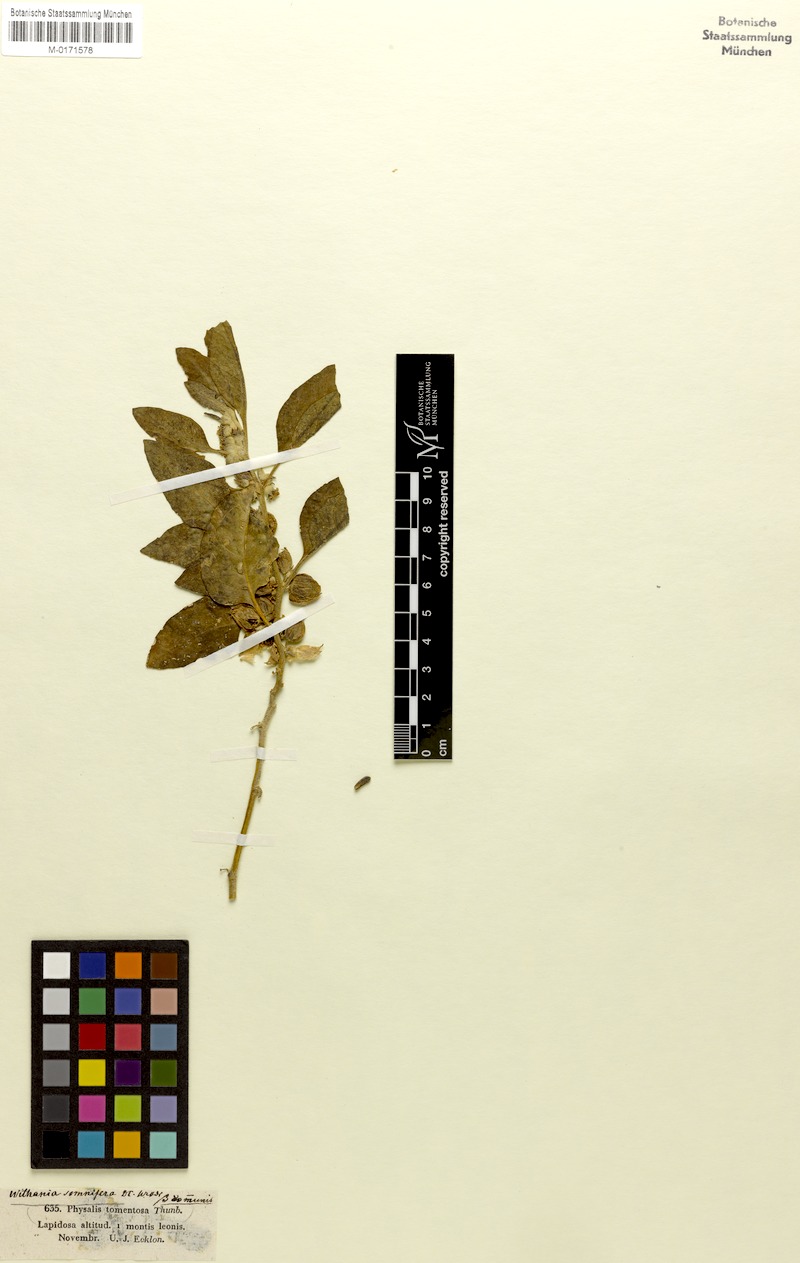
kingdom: Plantae
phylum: Tracheophyta
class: Magnoliopsida
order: Solanales
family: Solanaceae
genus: Withania
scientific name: Withania somnifera
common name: Winter-cherry
